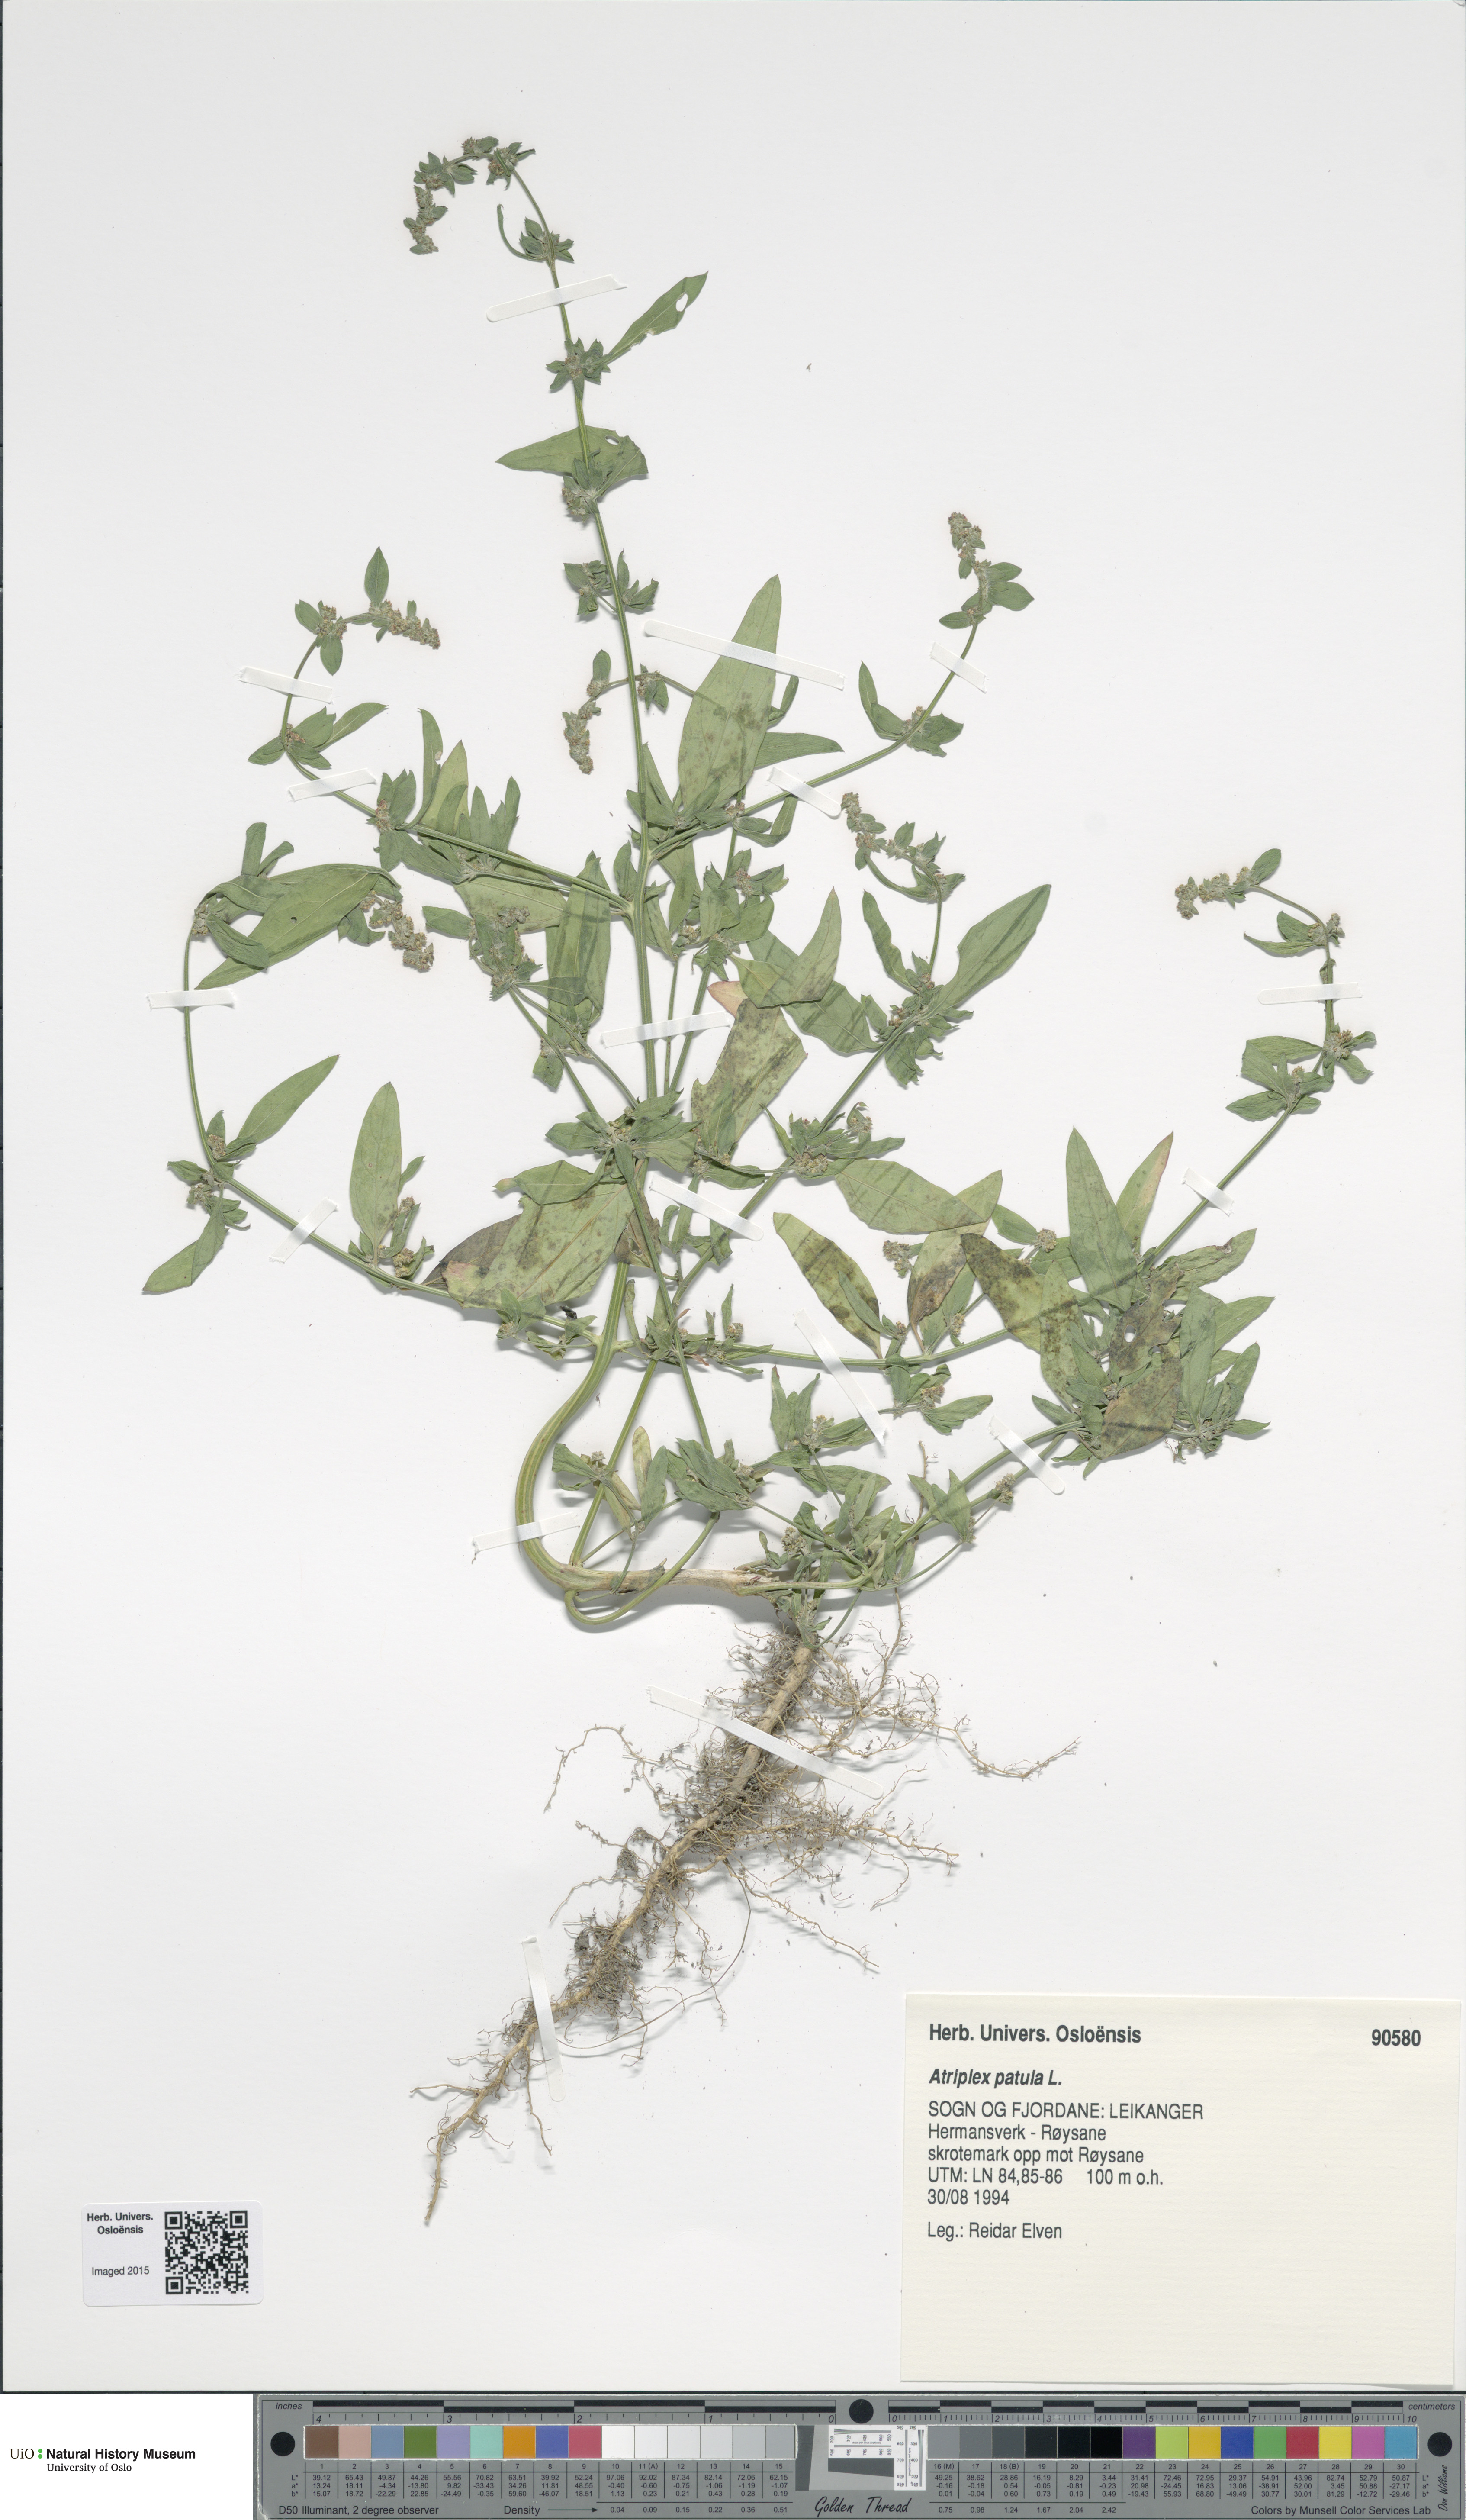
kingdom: Plantae
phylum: Tracheophyta
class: Magnoliopsida
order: Caryophyllales
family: Amaranthaceae
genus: Atriplex
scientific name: Atriplex patula
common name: Common orache
